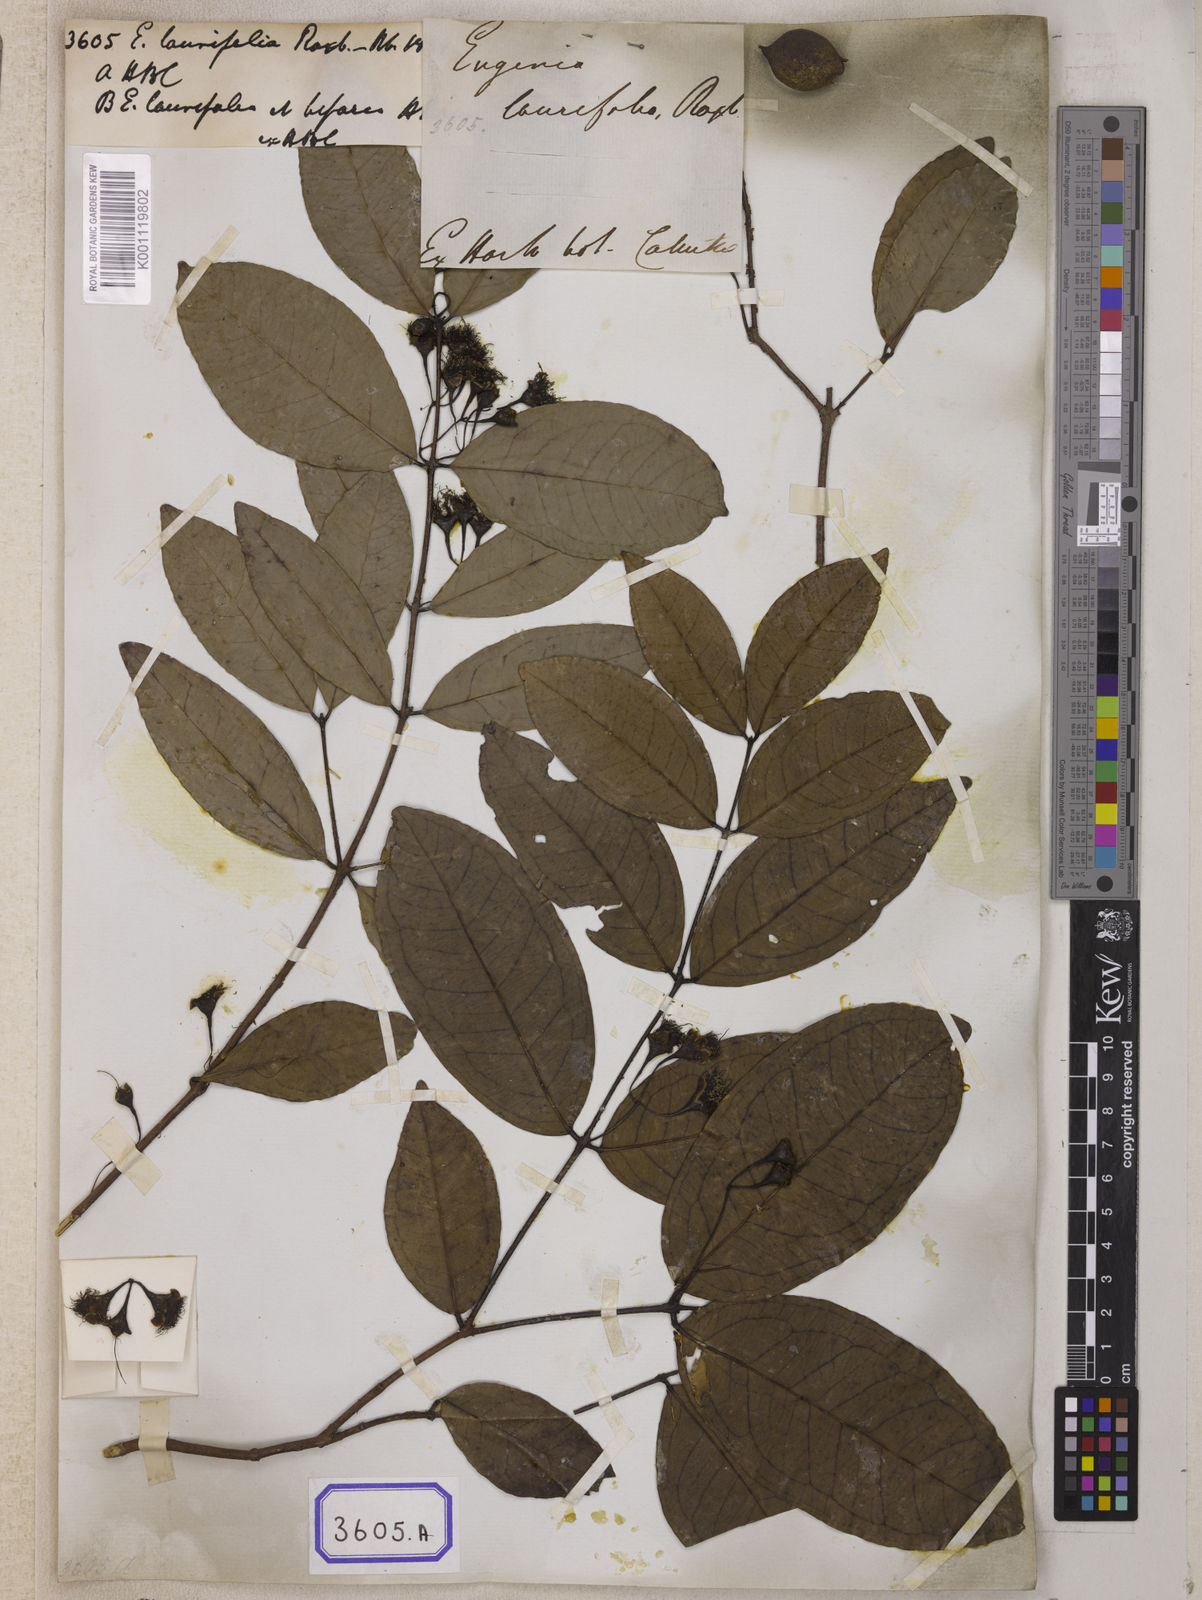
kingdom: Plantae
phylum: Tracheophyta
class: Magnoliopsida
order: Myrtales
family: Myrtaceae
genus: Syzygium
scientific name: Syzygium laurifolium
